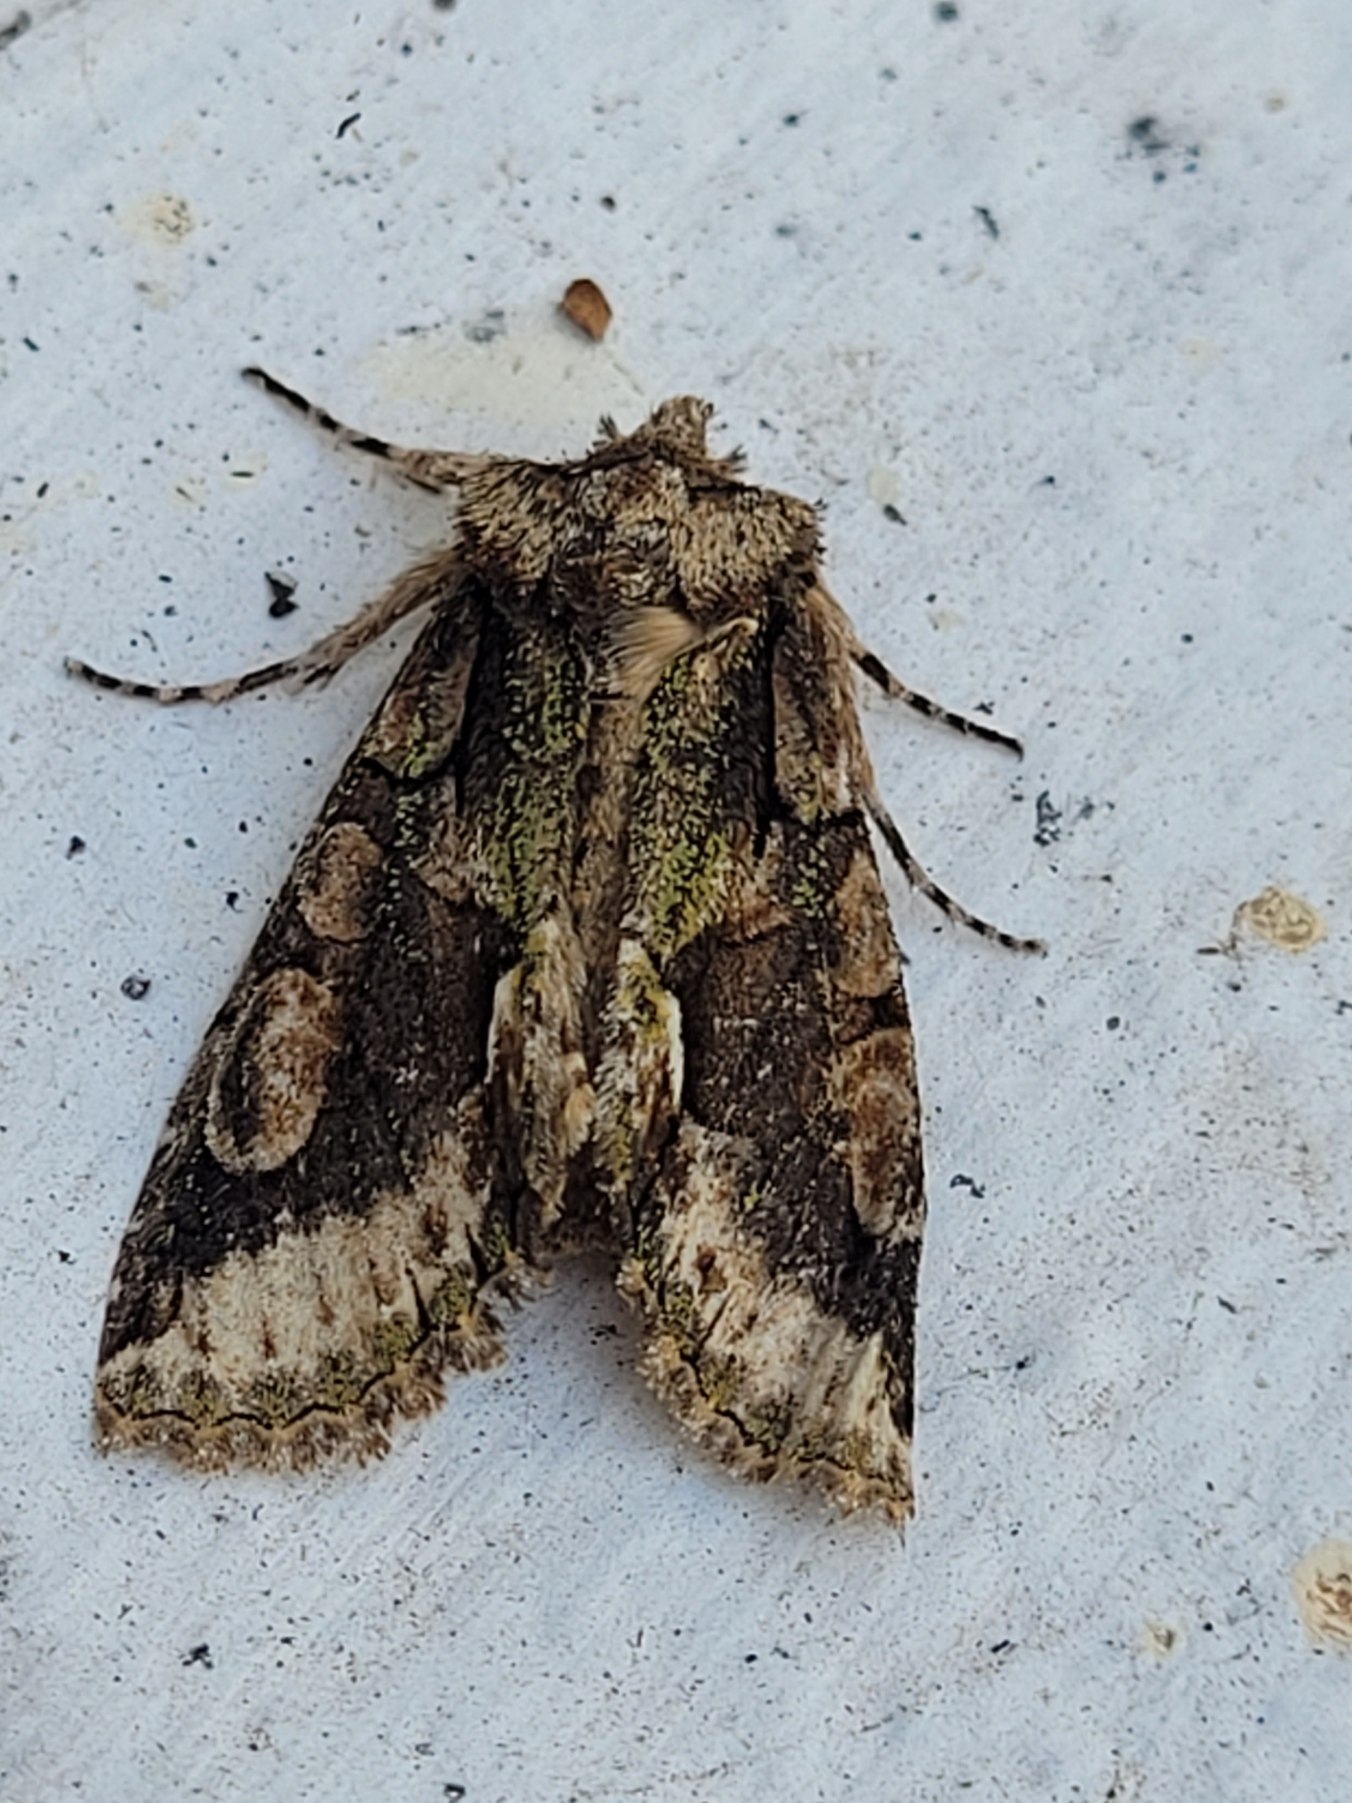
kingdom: Animalia
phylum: Arthropoda
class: Insecta
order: Lepidoptera
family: Noctuidae
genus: Allophyes
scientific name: Allophyes oxyacanthae
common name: Tjørneugle
